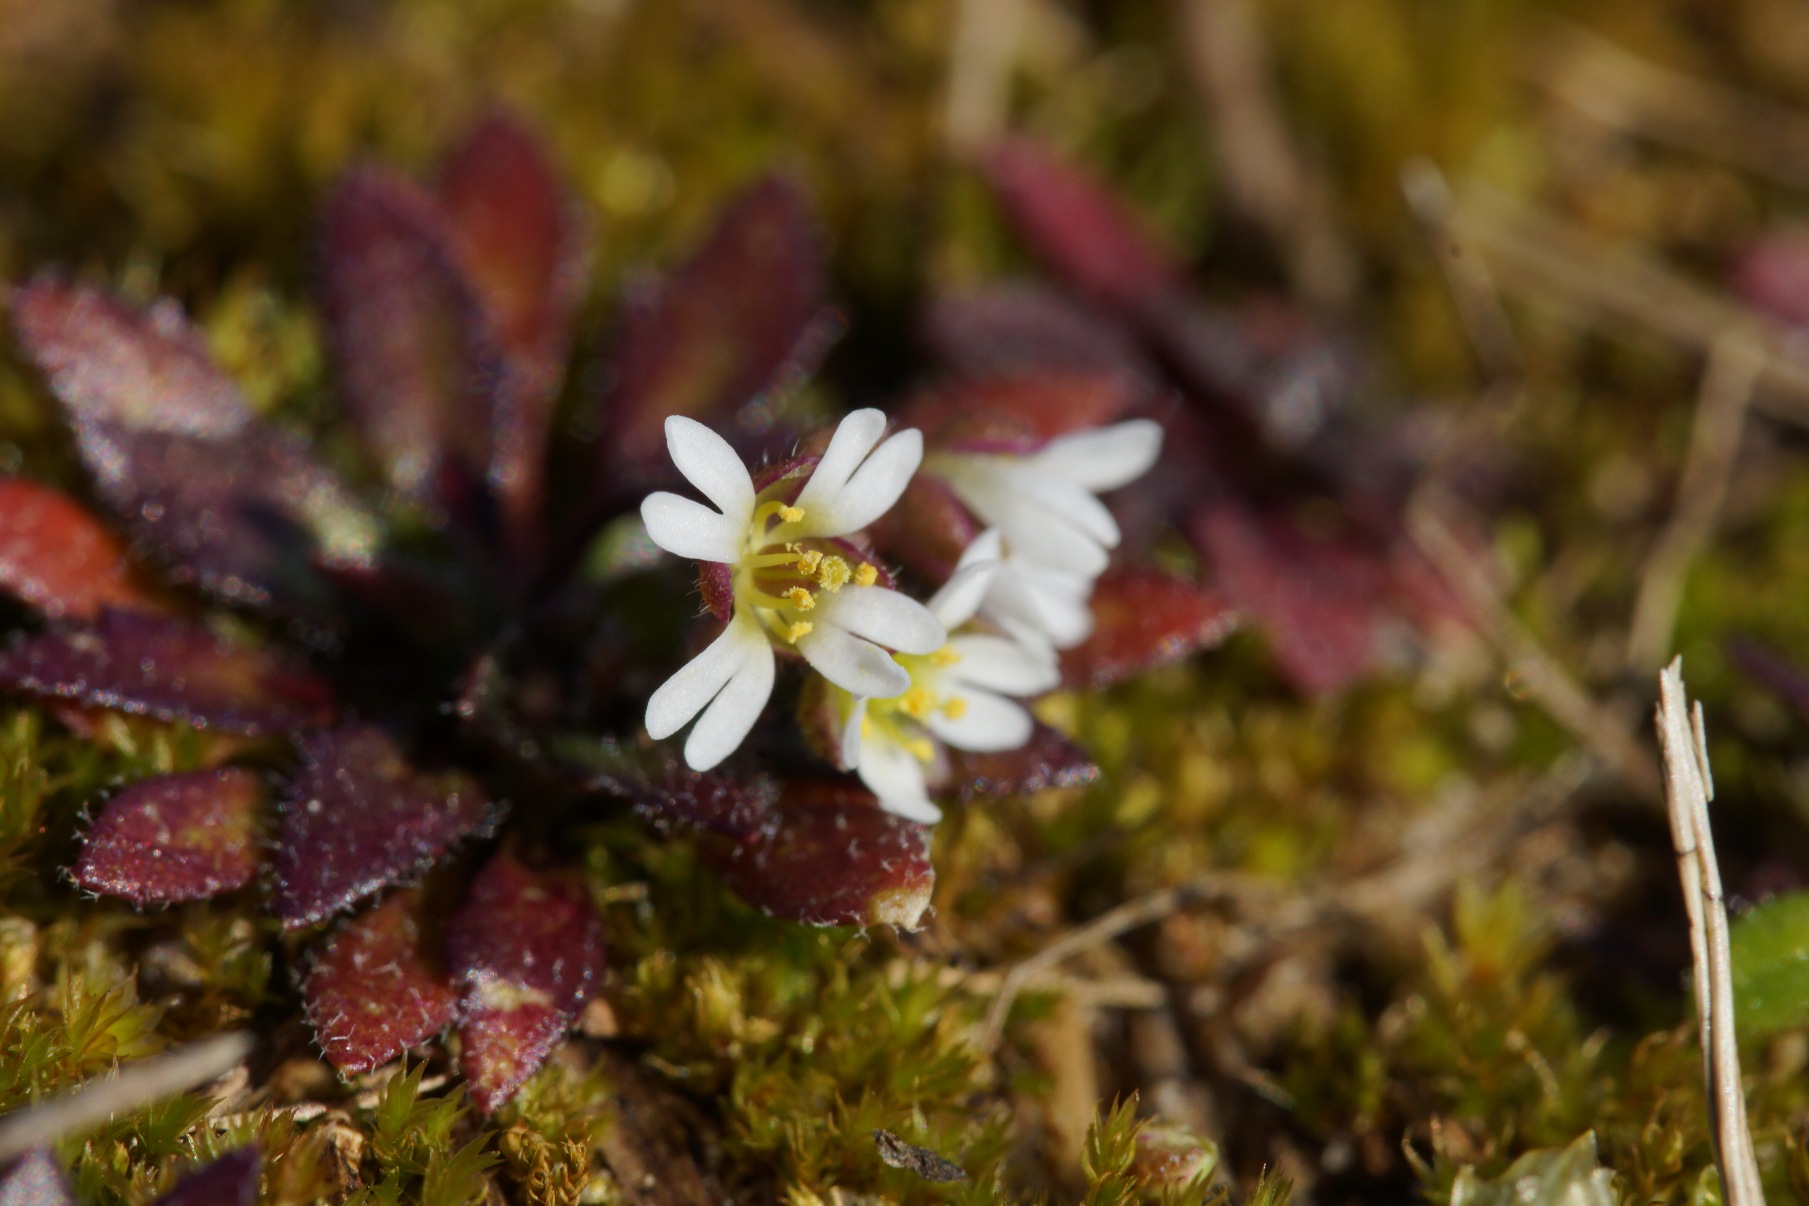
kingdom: Plantae
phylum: Tracheophyta
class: Magnoliopsida
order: Brassicales
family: Brassicaceae
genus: Draba
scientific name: Draba verna
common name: Vår-gæslingeblomst
